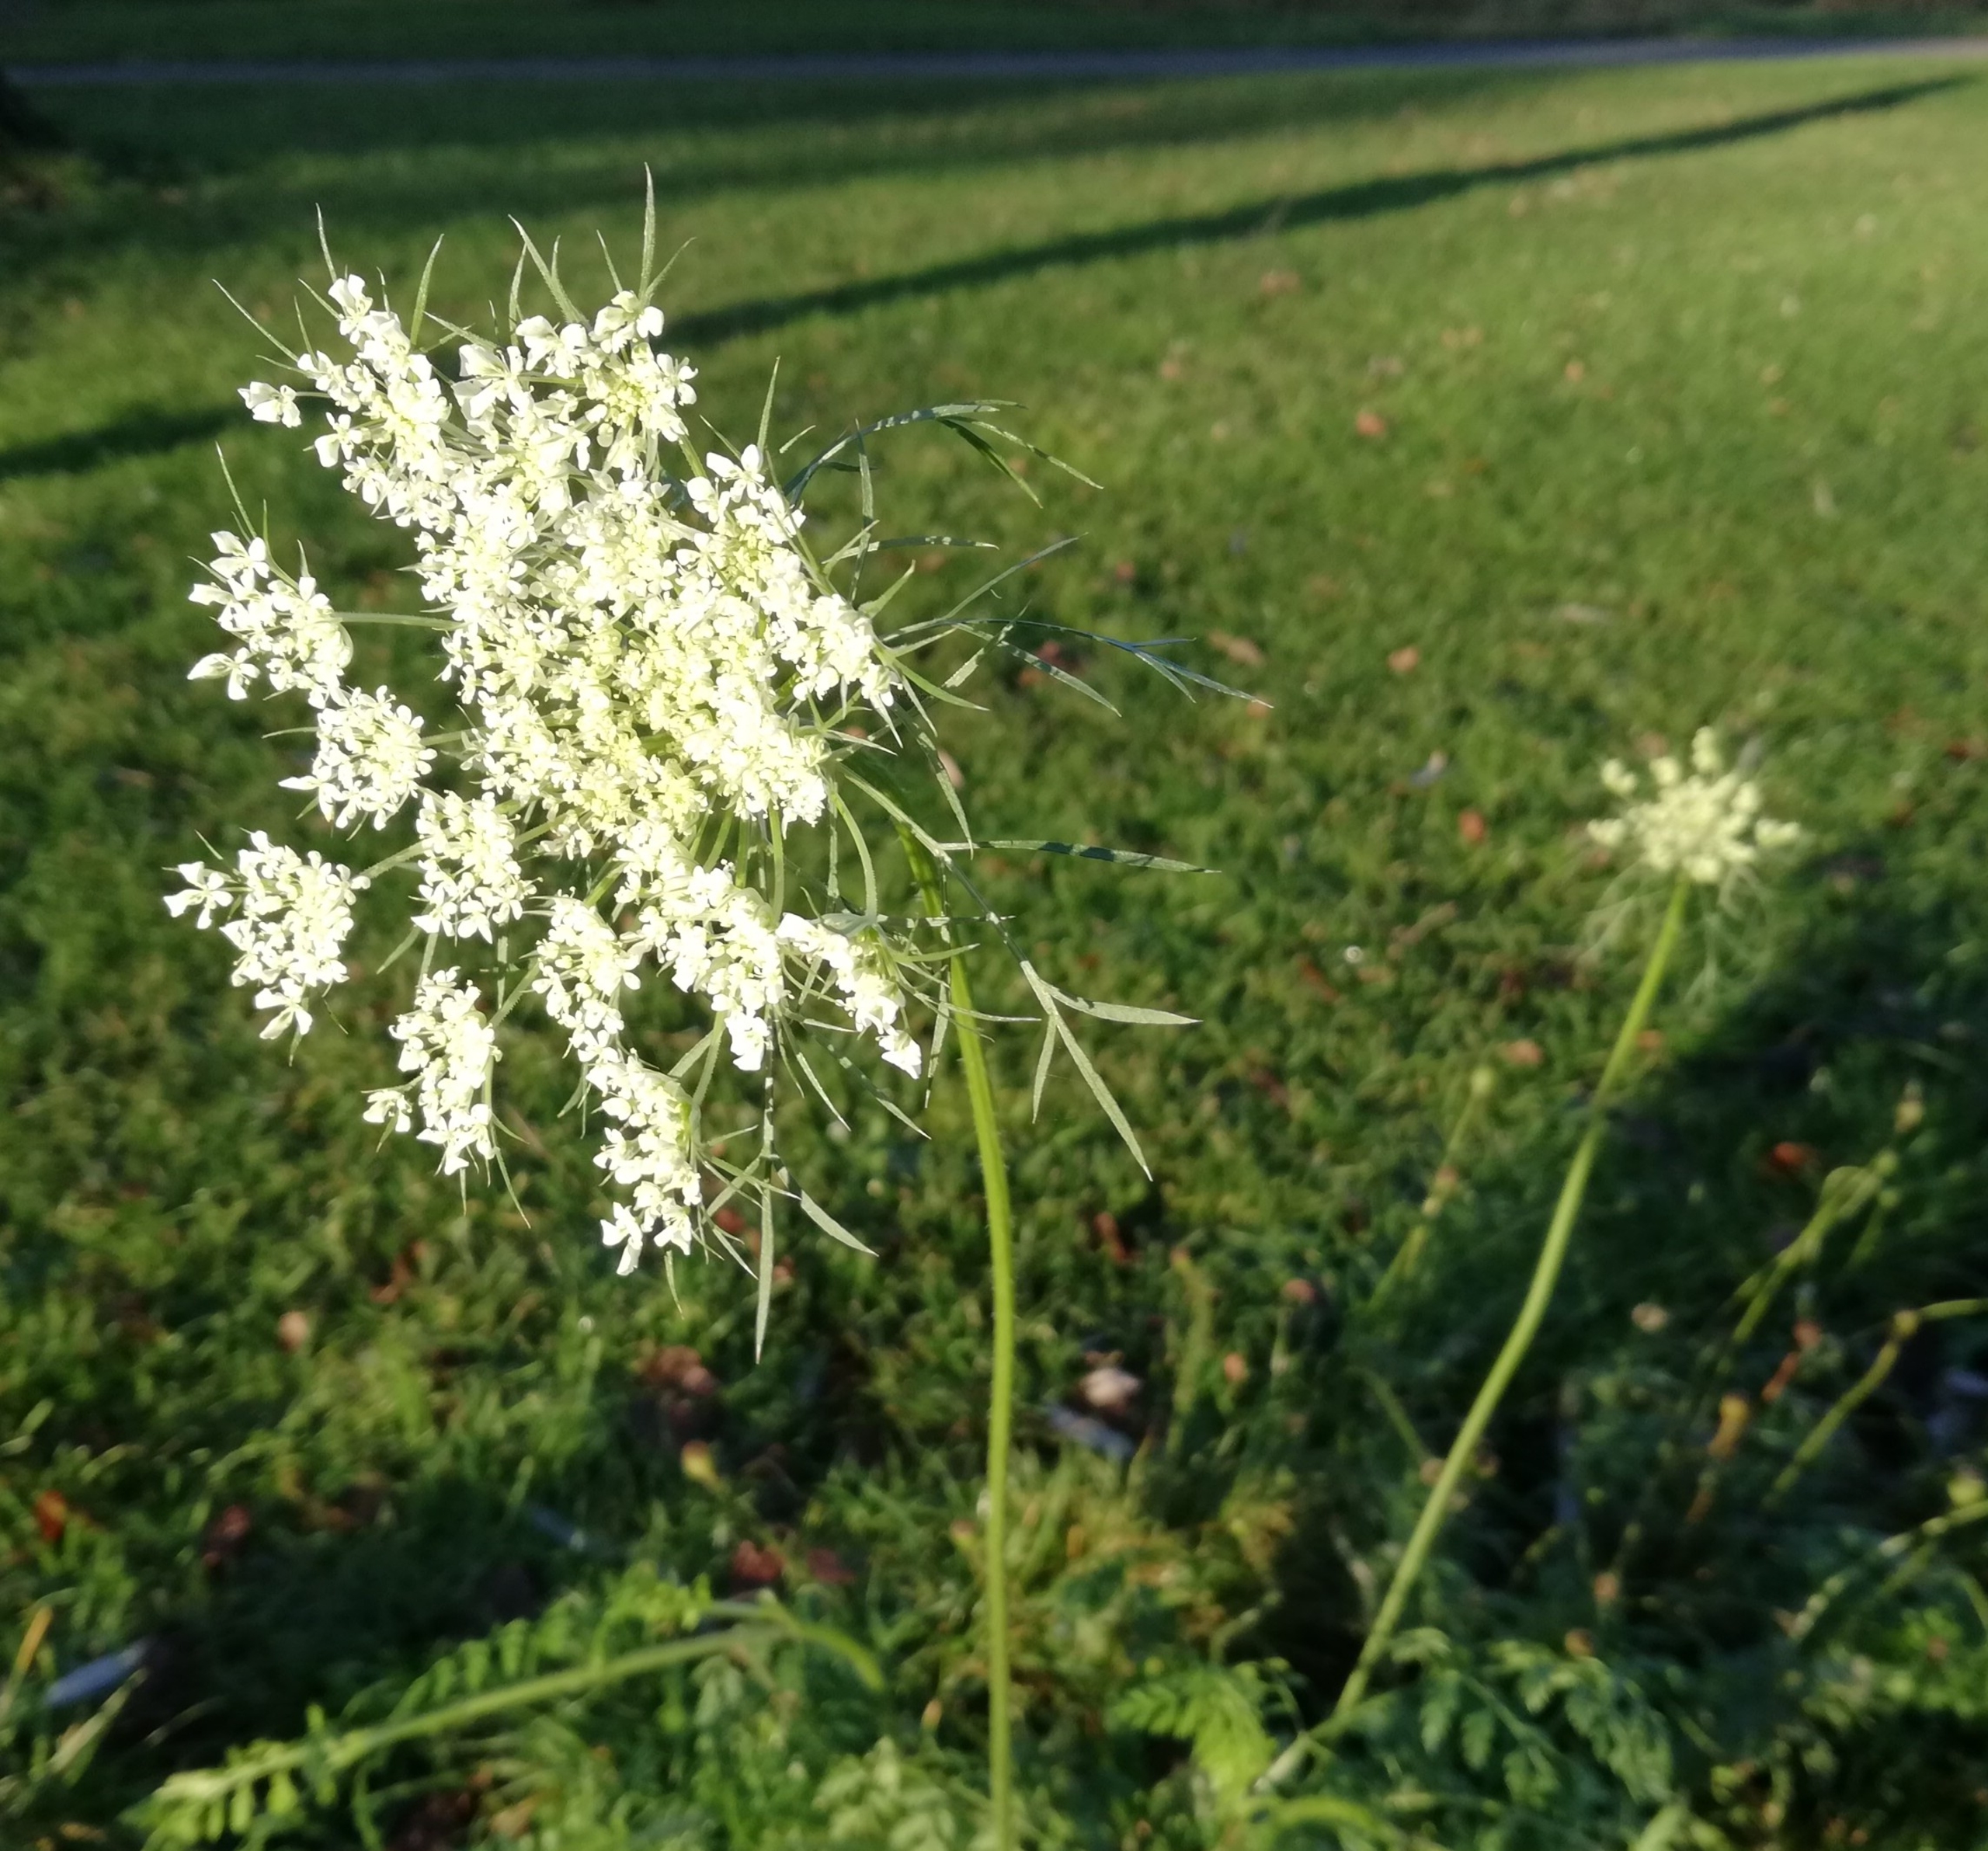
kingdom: Plantae
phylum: Tracheophyta
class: Magnoliopsida
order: Apiales
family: Apiaceae
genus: Daucus
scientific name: Daucus carota
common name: Gulerod
